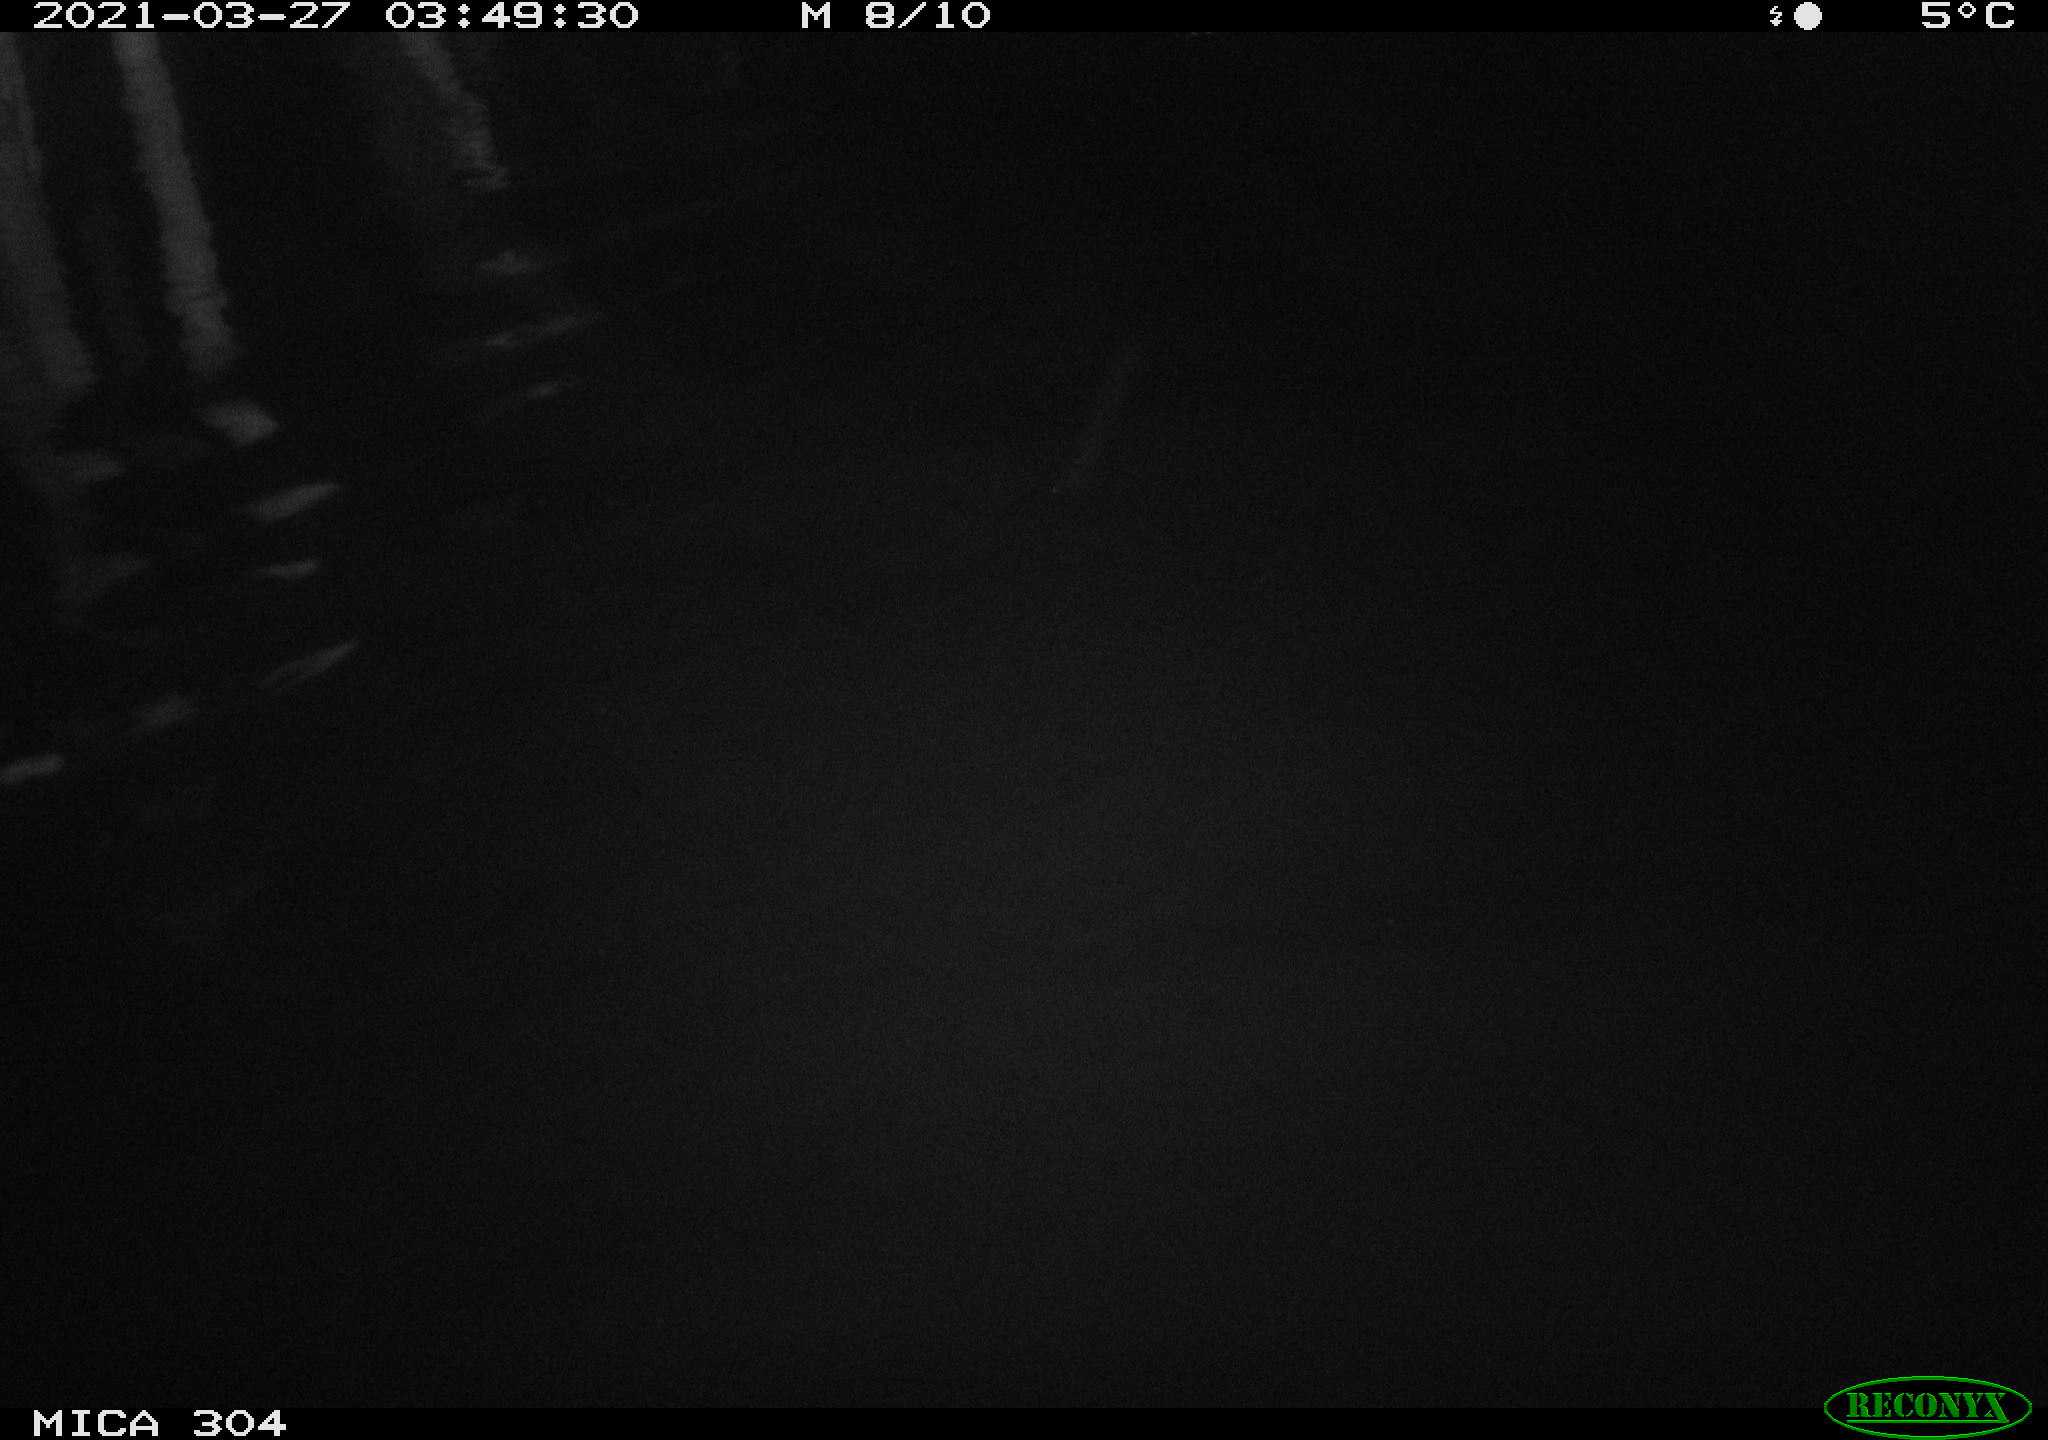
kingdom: Animalia
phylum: Chordata
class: Aves
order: Anseriformes
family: Anatidae
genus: Anas
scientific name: Anas platyrhynchos
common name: Mallard
